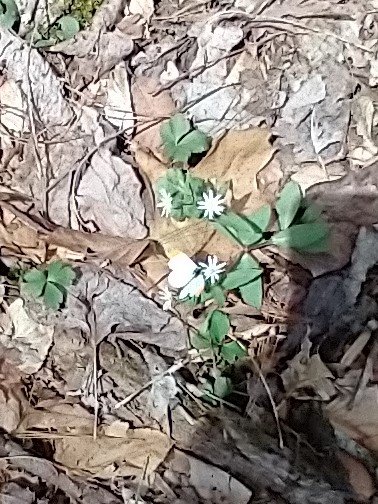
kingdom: Animalia
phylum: Arthropoda
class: Insecta
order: Lepidoptera
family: Pieridae
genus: Anthocharis
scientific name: Anthocharis midea
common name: Falcate Orangetip
